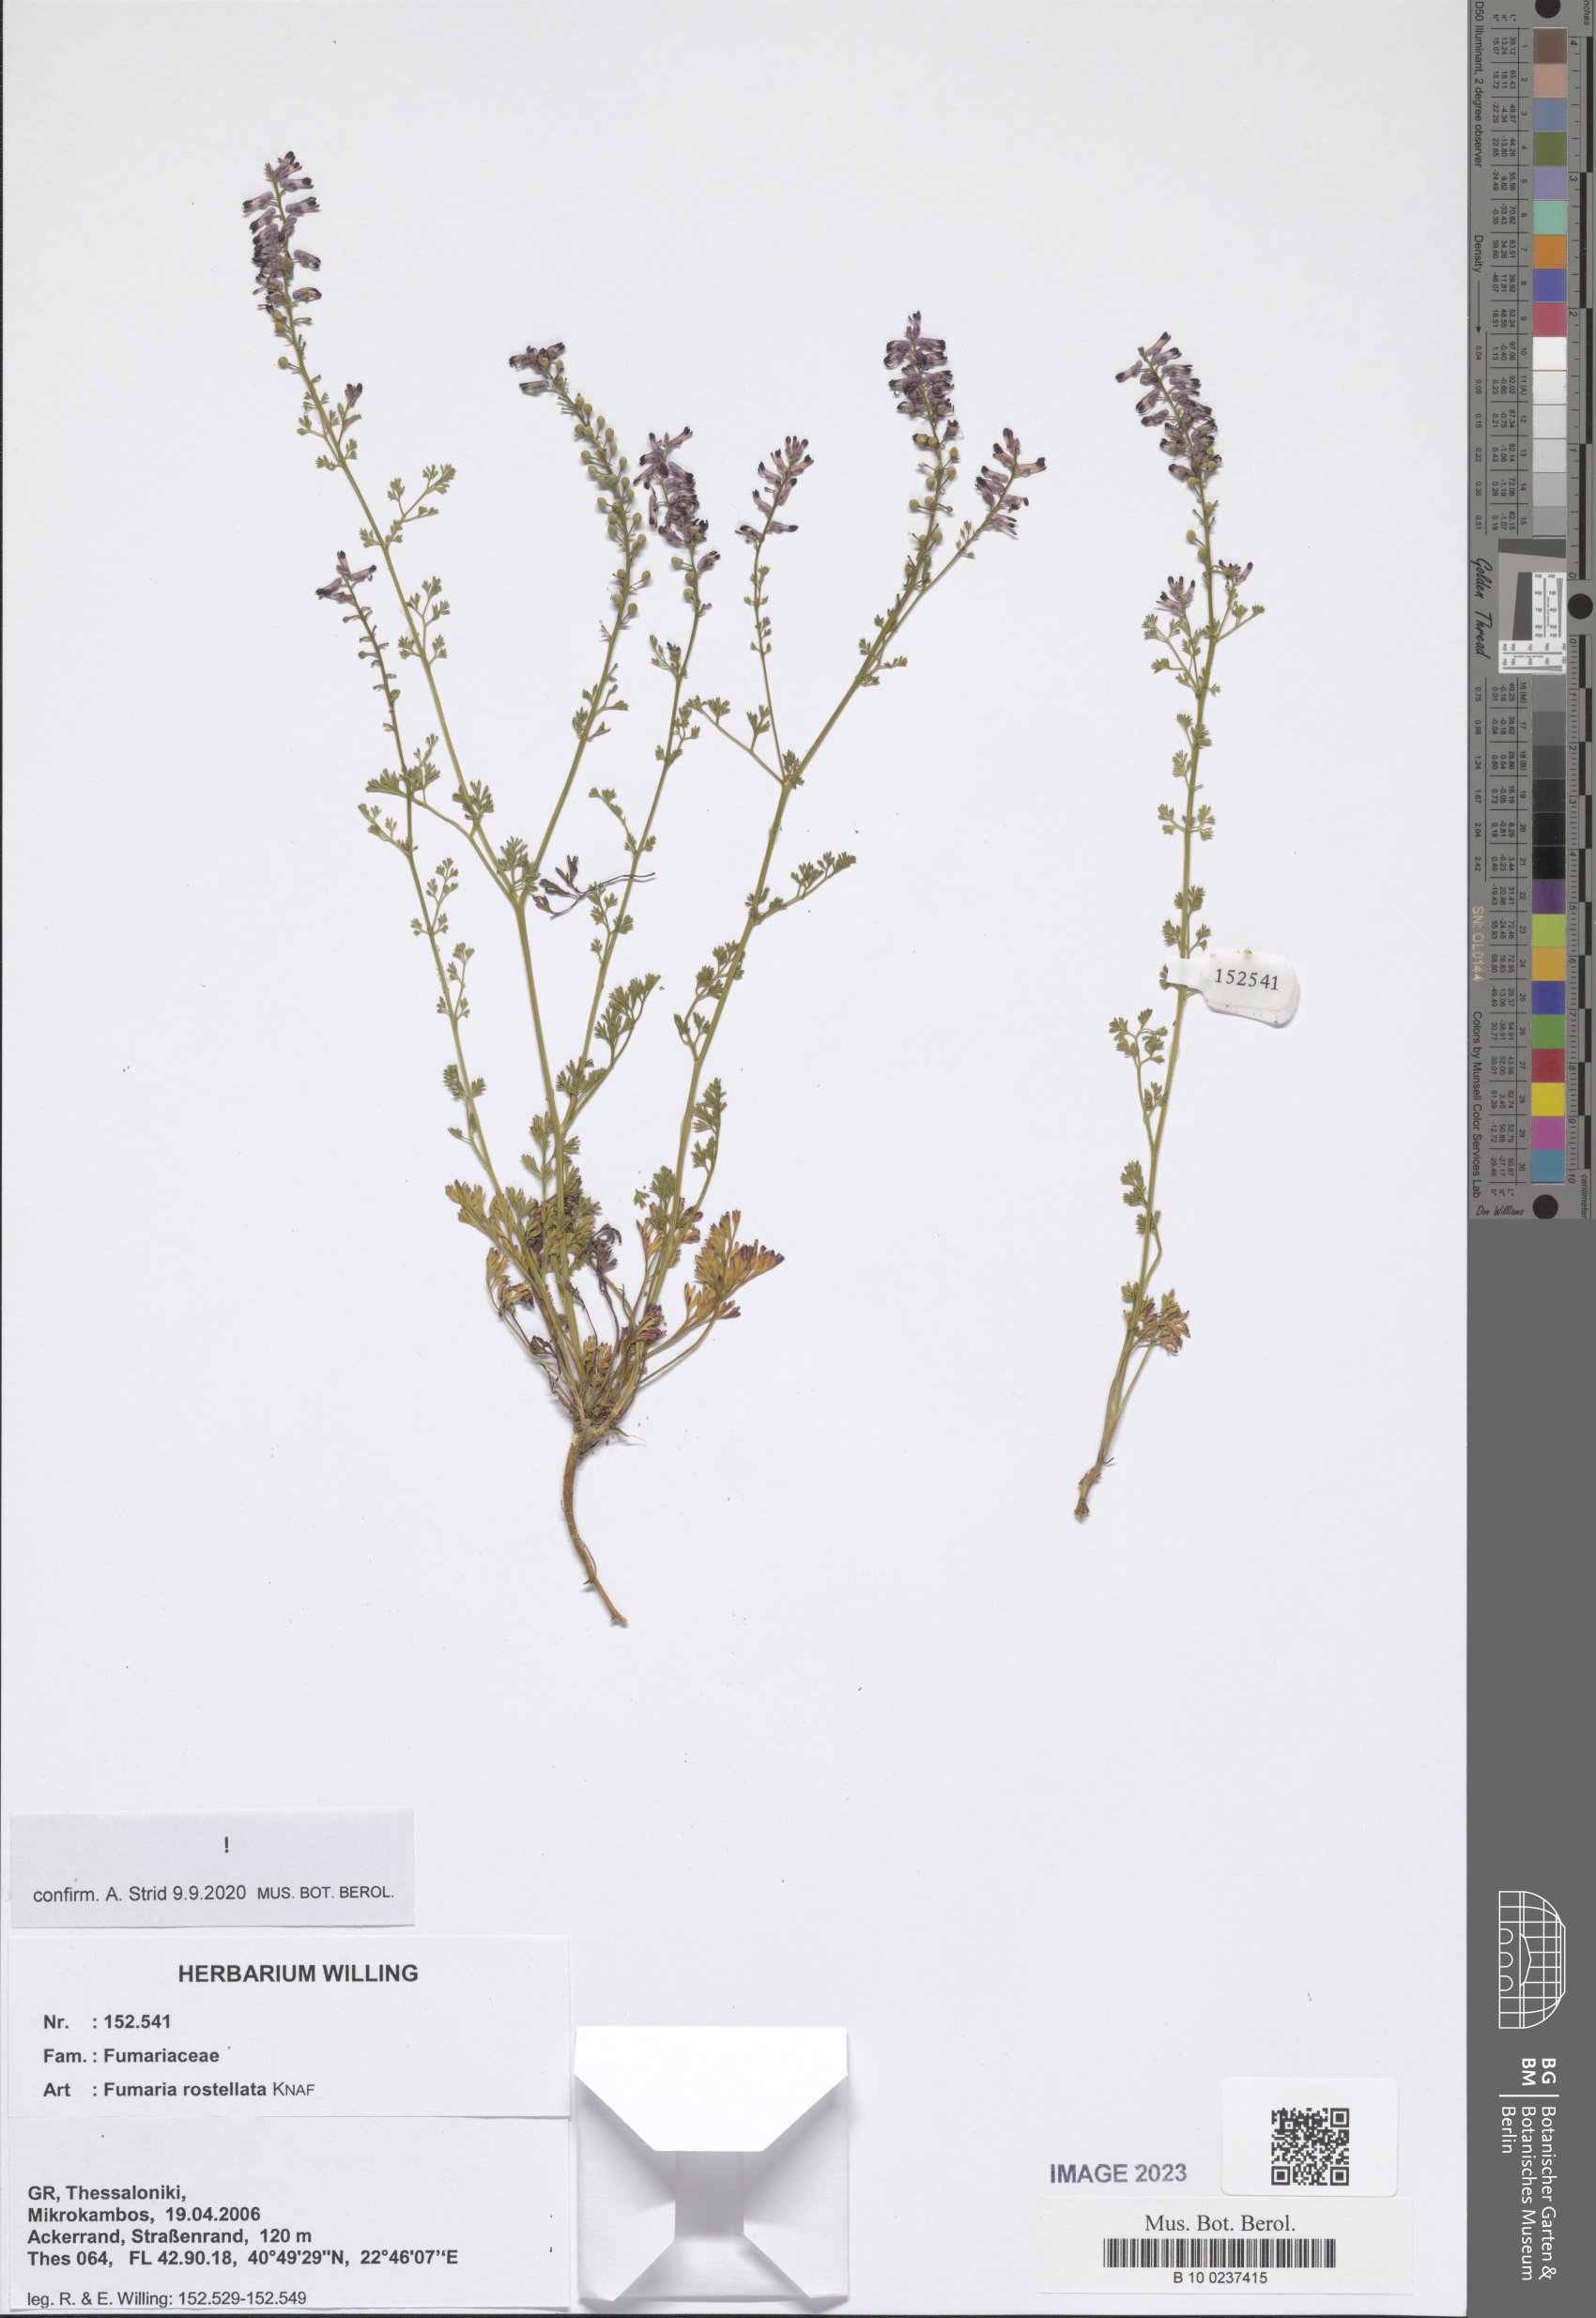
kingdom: Plantae
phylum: Tracheophyta
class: Magnoliopsida
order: Ranunculales
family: Papaveraceae
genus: Fumaria
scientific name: Fumaria rostellata
